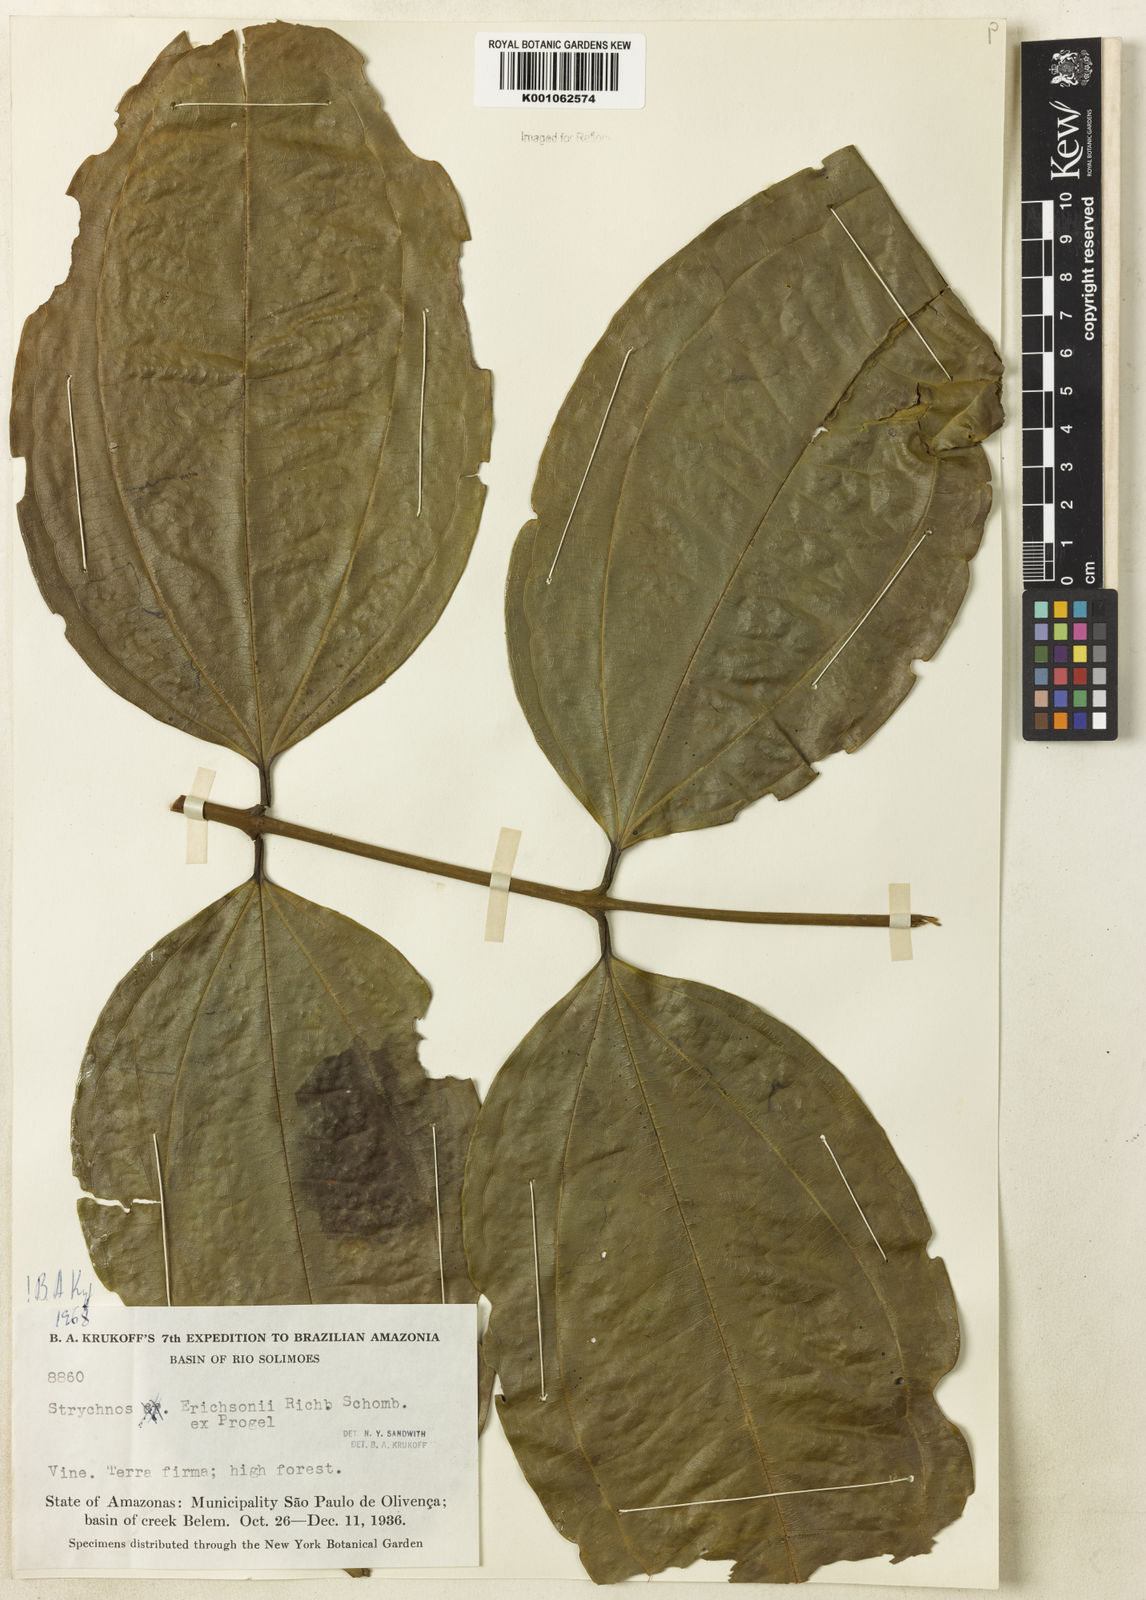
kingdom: Plantae
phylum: Tracheophyta
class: Magnoliopsida
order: Gentianales
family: Loganiaceae
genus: Strychnos
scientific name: Strychnos erichsonii
